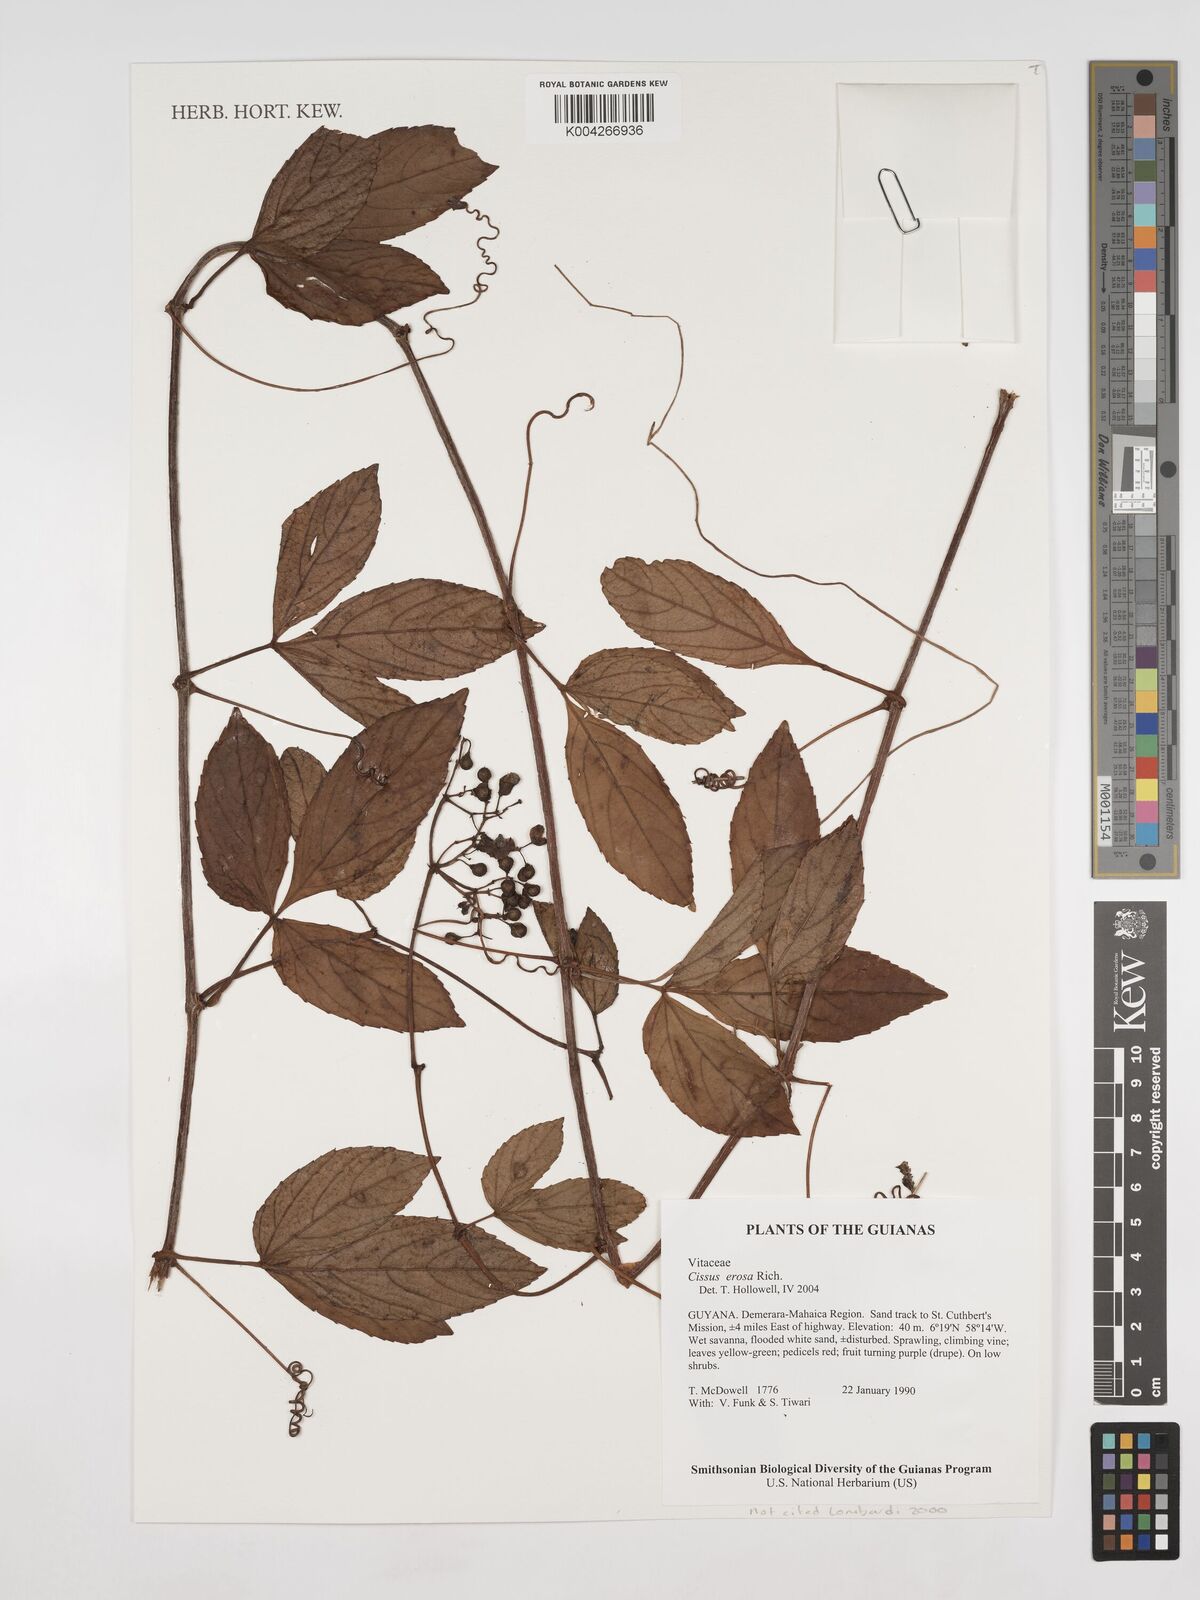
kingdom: Plantae
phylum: Tracheophyta
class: Magnoliopsida
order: Vitales
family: Vitaceae
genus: Cissus
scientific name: Cissus erosa
